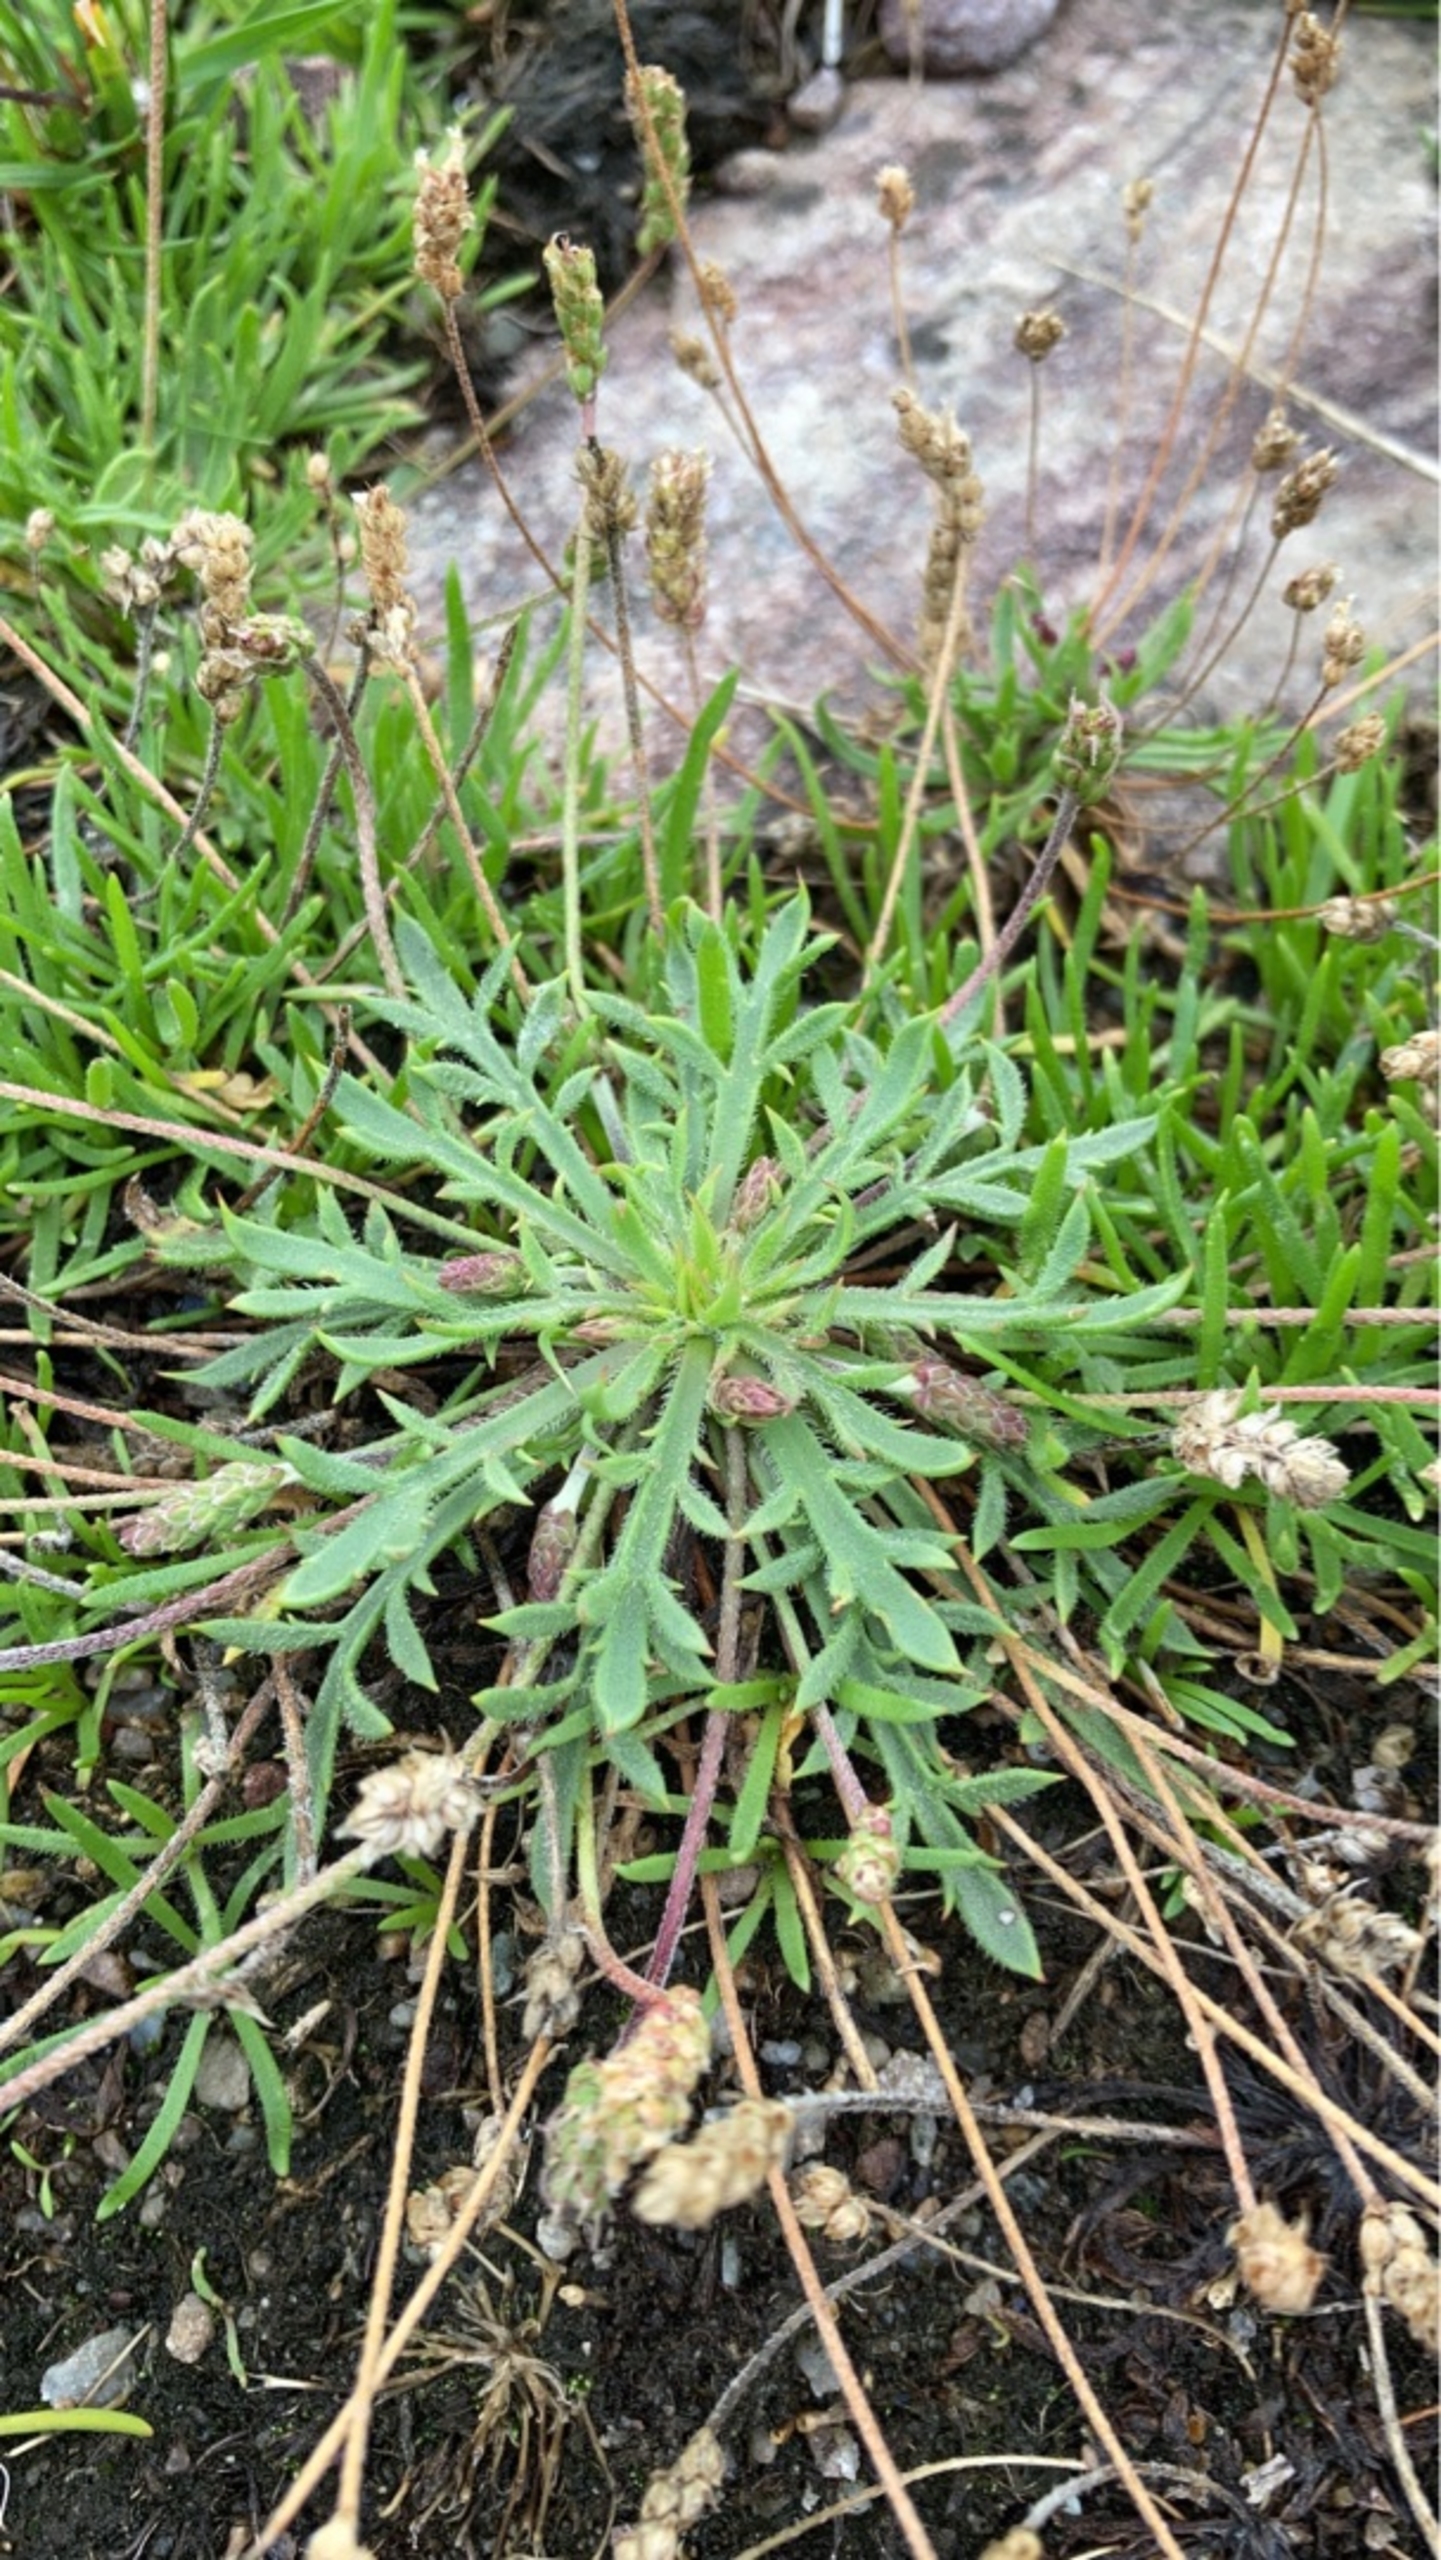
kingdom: Plantae
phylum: Tracheophyta
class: Magnoliopsida
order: Lamiales
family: Plantaginaceae
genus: Plantago
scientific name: Plantago coronopus
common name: Fliget vejbred
